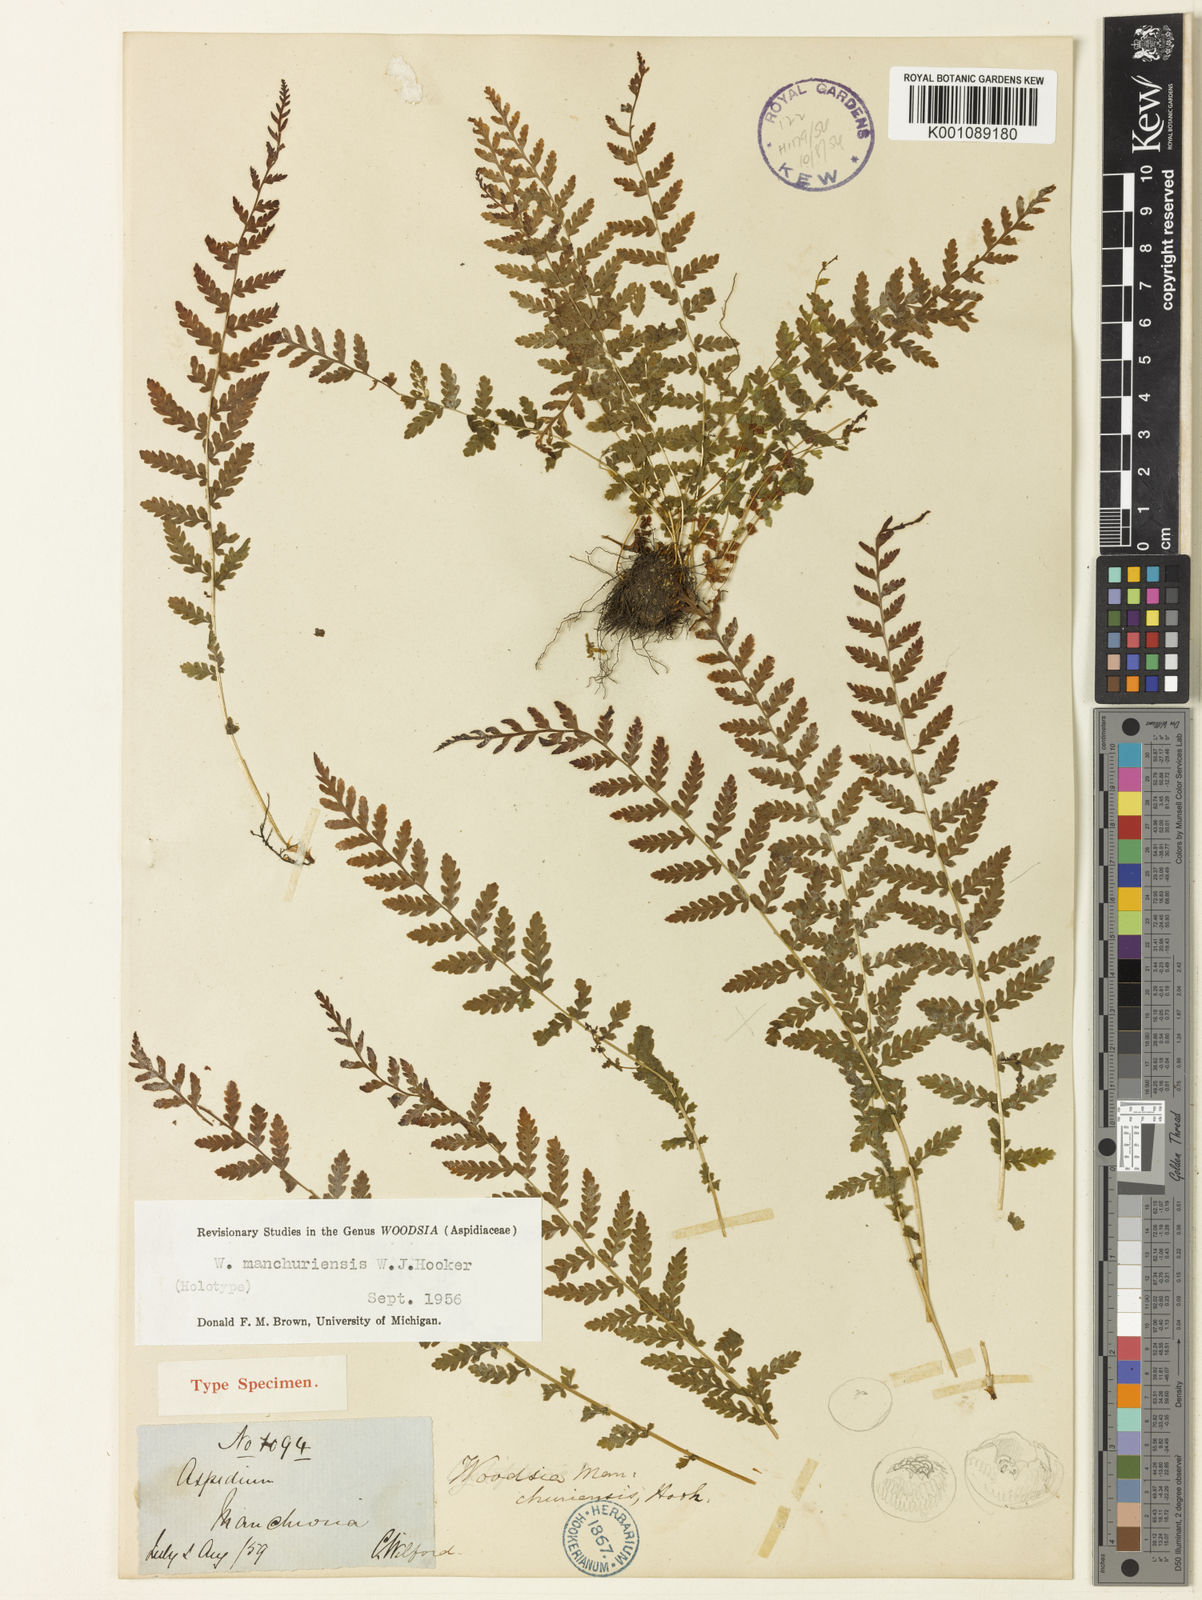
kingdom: Plantae
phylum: Tracheophyta
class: Polypodiopsida
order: Polypodiales
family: Woodsiaceae
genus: Physematium
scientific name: Physematium manchuriense
